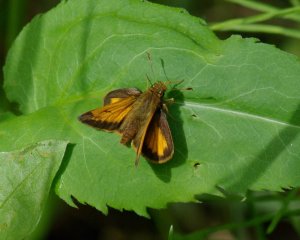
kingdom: Animalia
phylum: Arthropoda
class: Insecta
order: Lepidoptera
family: Hesperiidae
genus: Lon
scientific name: Lon hobomok
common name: Hobomok Skipper
